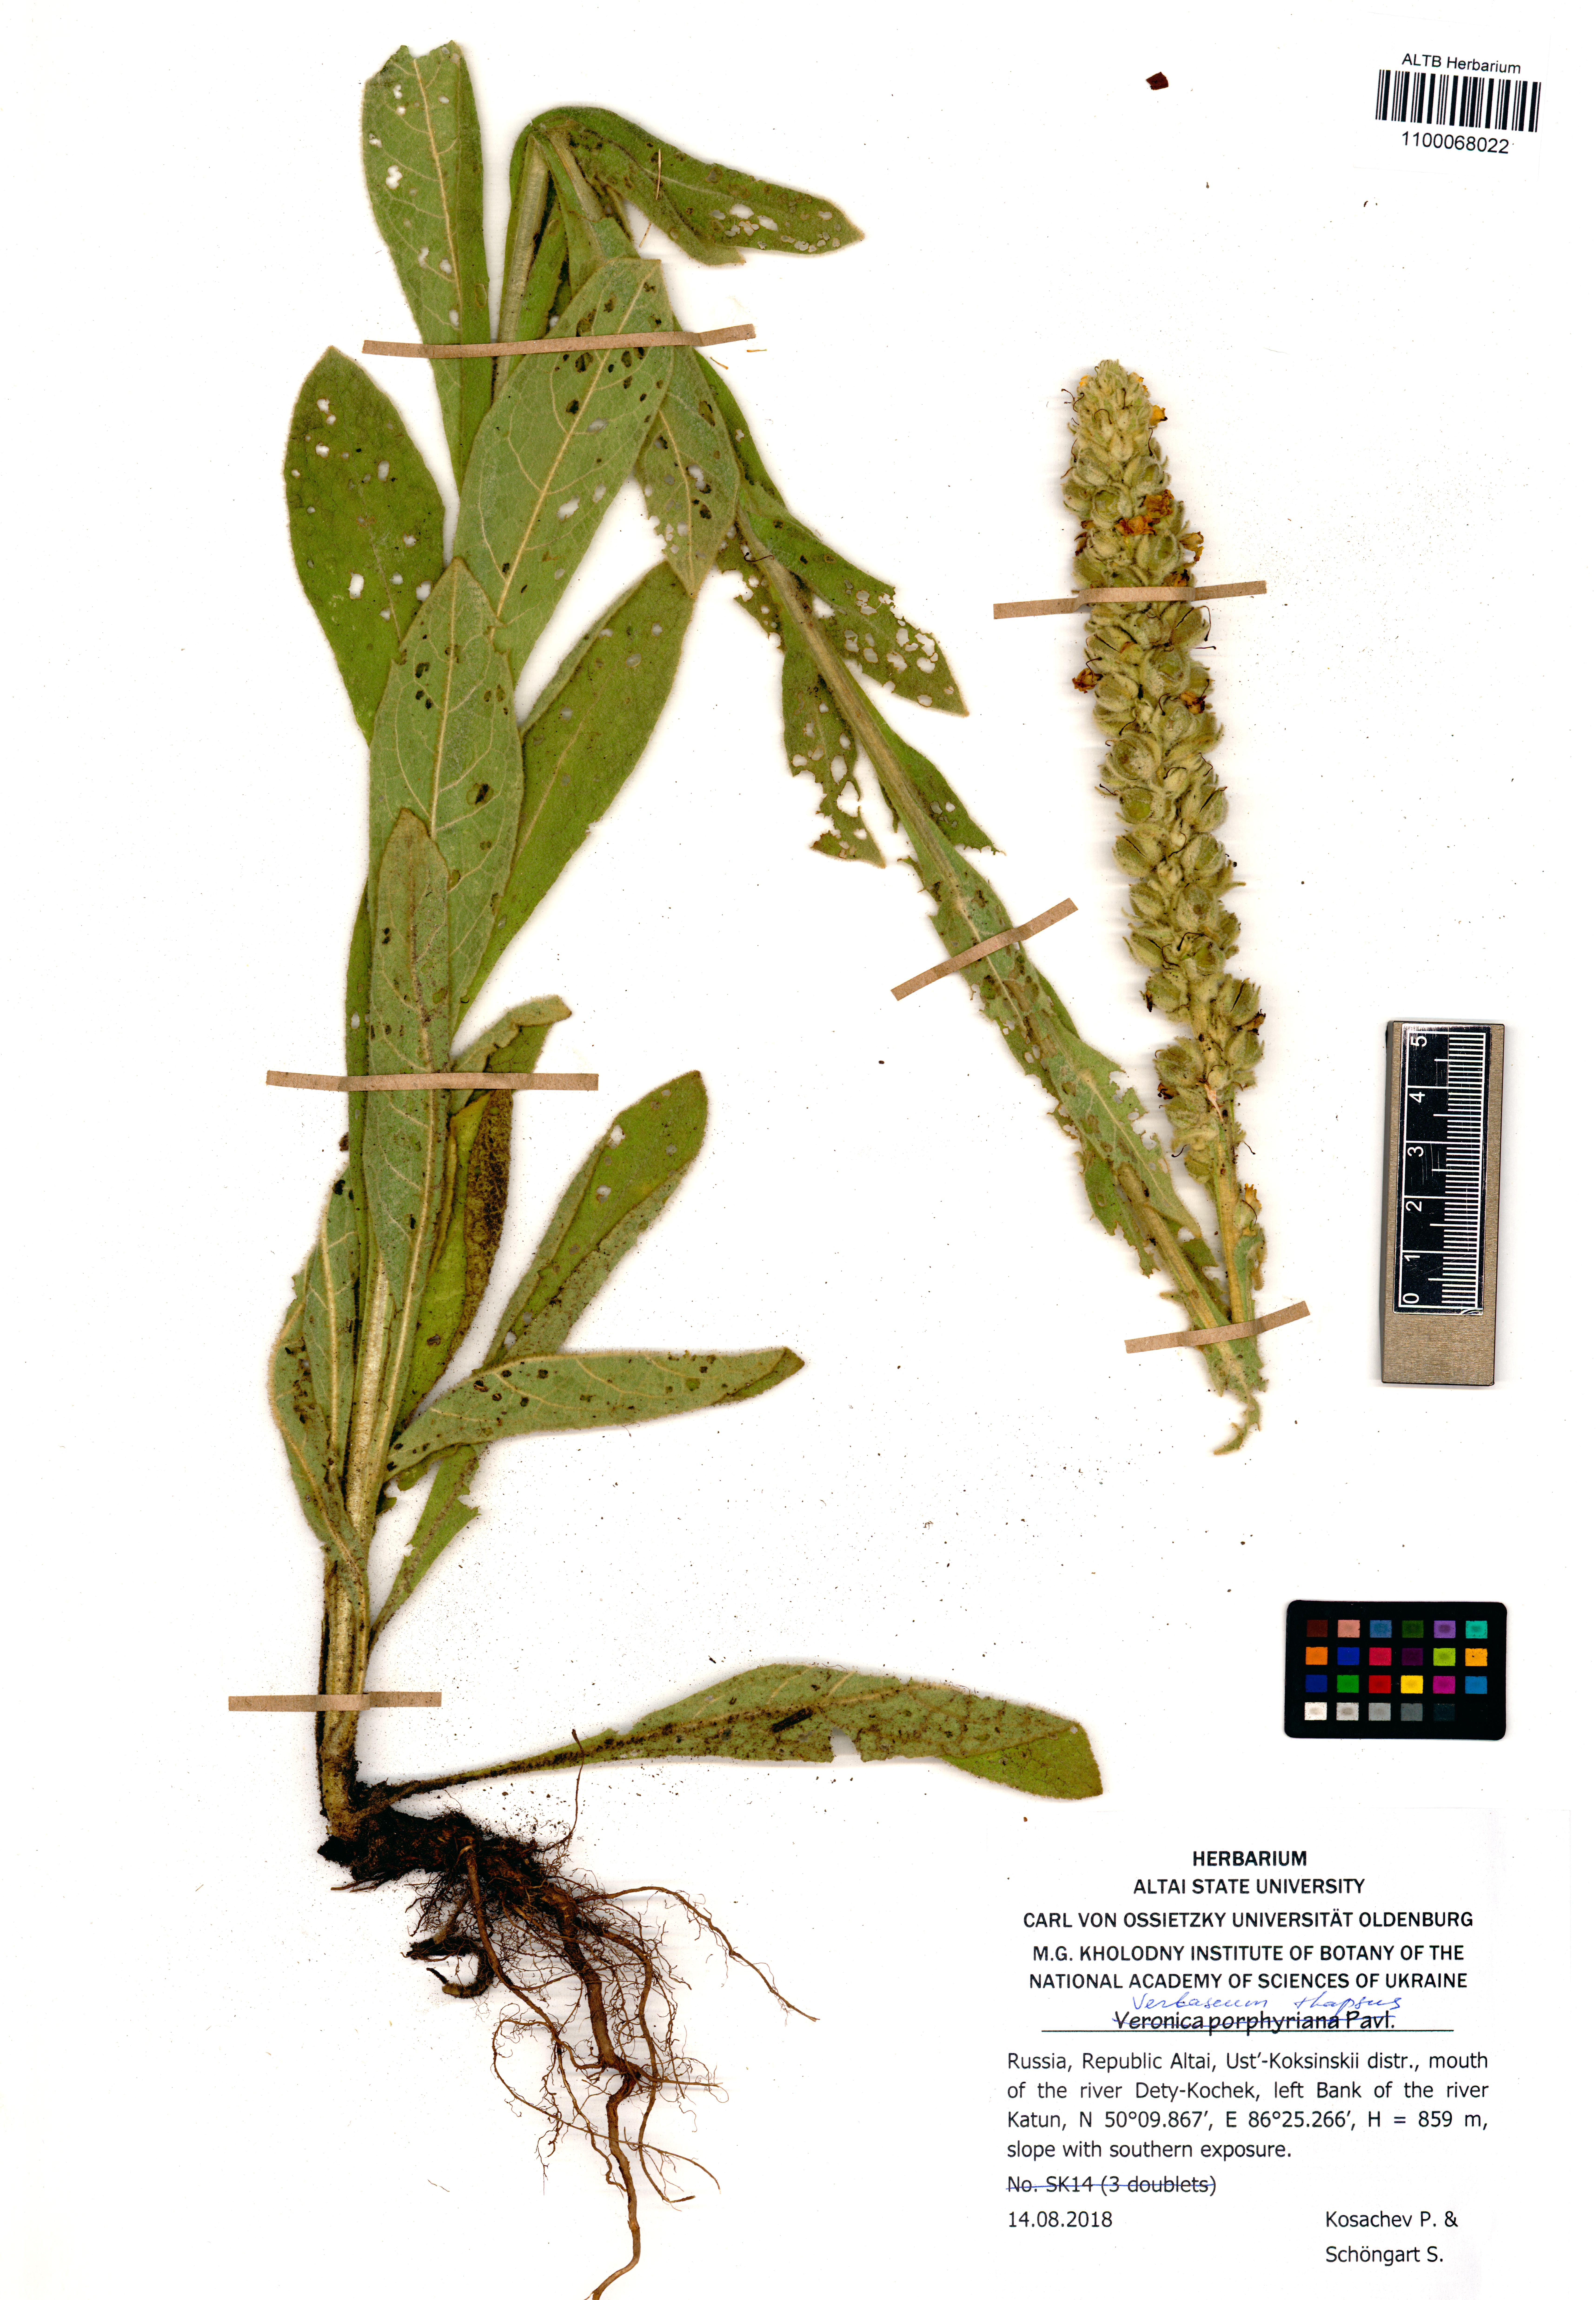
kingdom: Plantae
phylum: Tracheophyta
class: Magnoliopsida
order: Lamiales
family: Scrophulariaceae
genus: Verbascum
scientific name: Verbascum thapsus
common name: Common mullein
